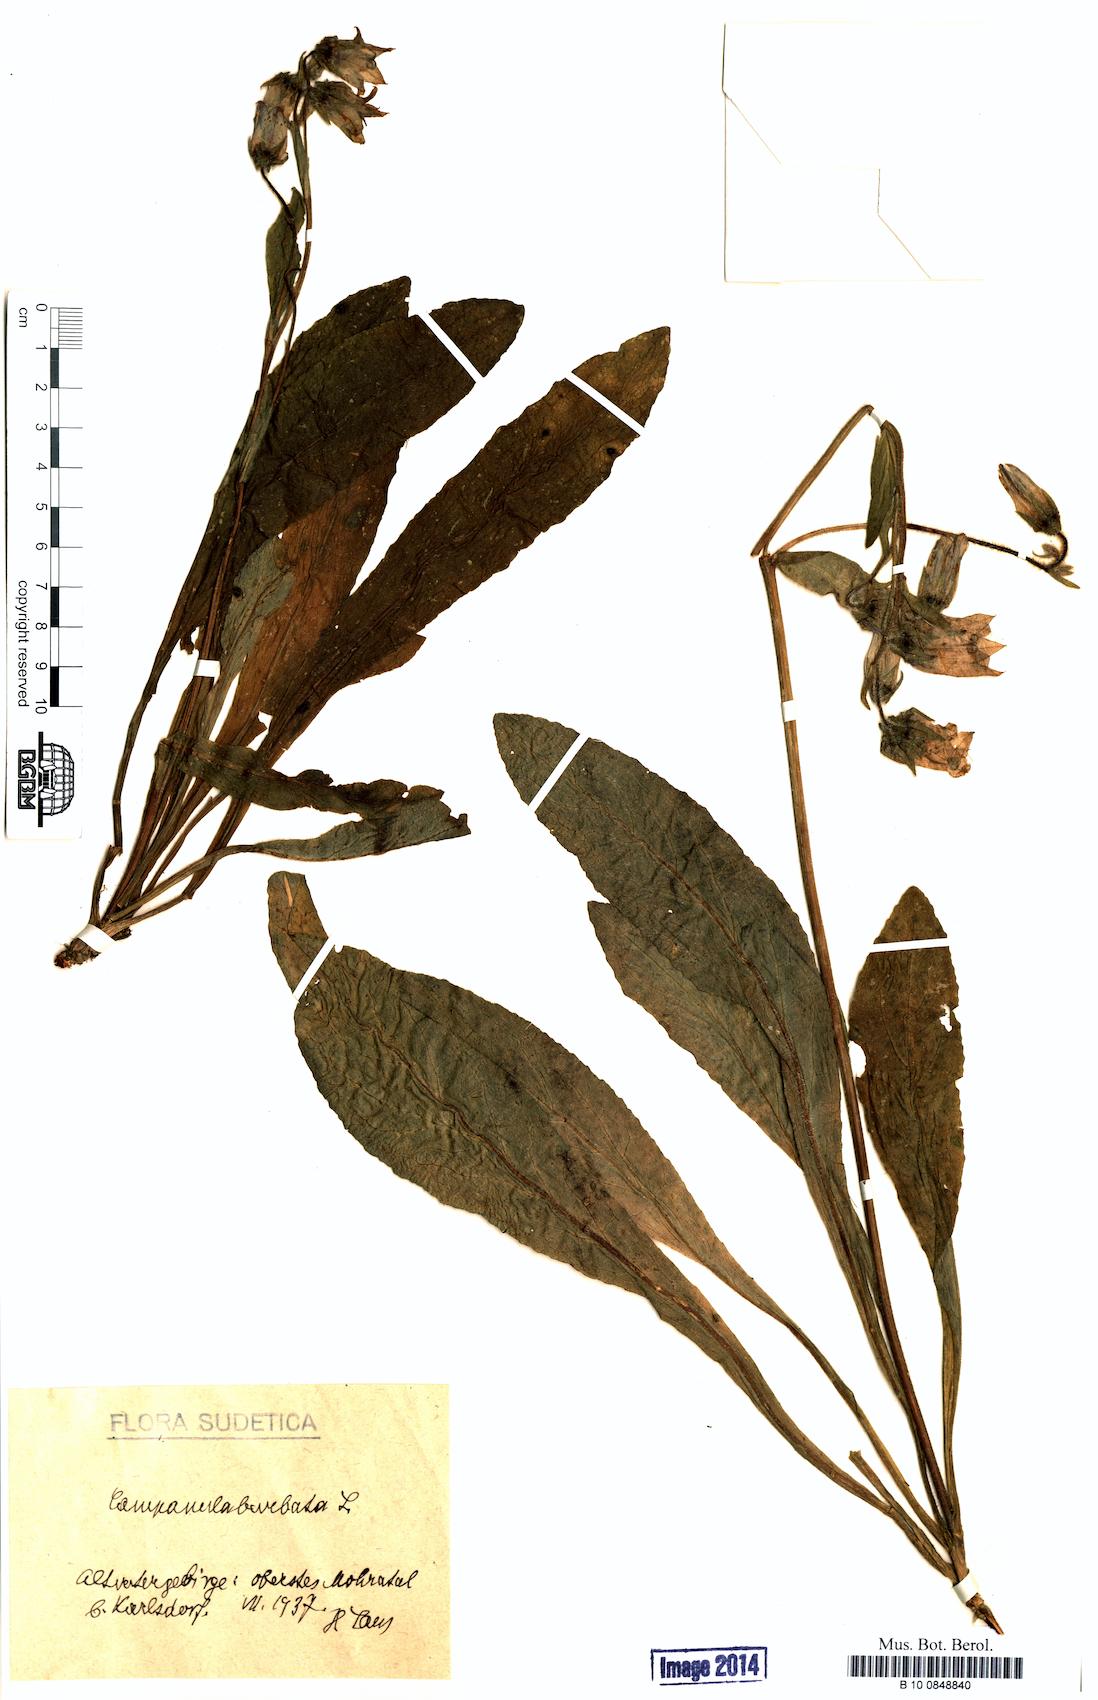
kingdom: Plantae
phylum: Tracheophyta
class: Magnoliopsida
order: Asterales
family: Campanulaceae
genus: Campanula
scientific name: Campanula barbata
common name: Bearded bellflower
